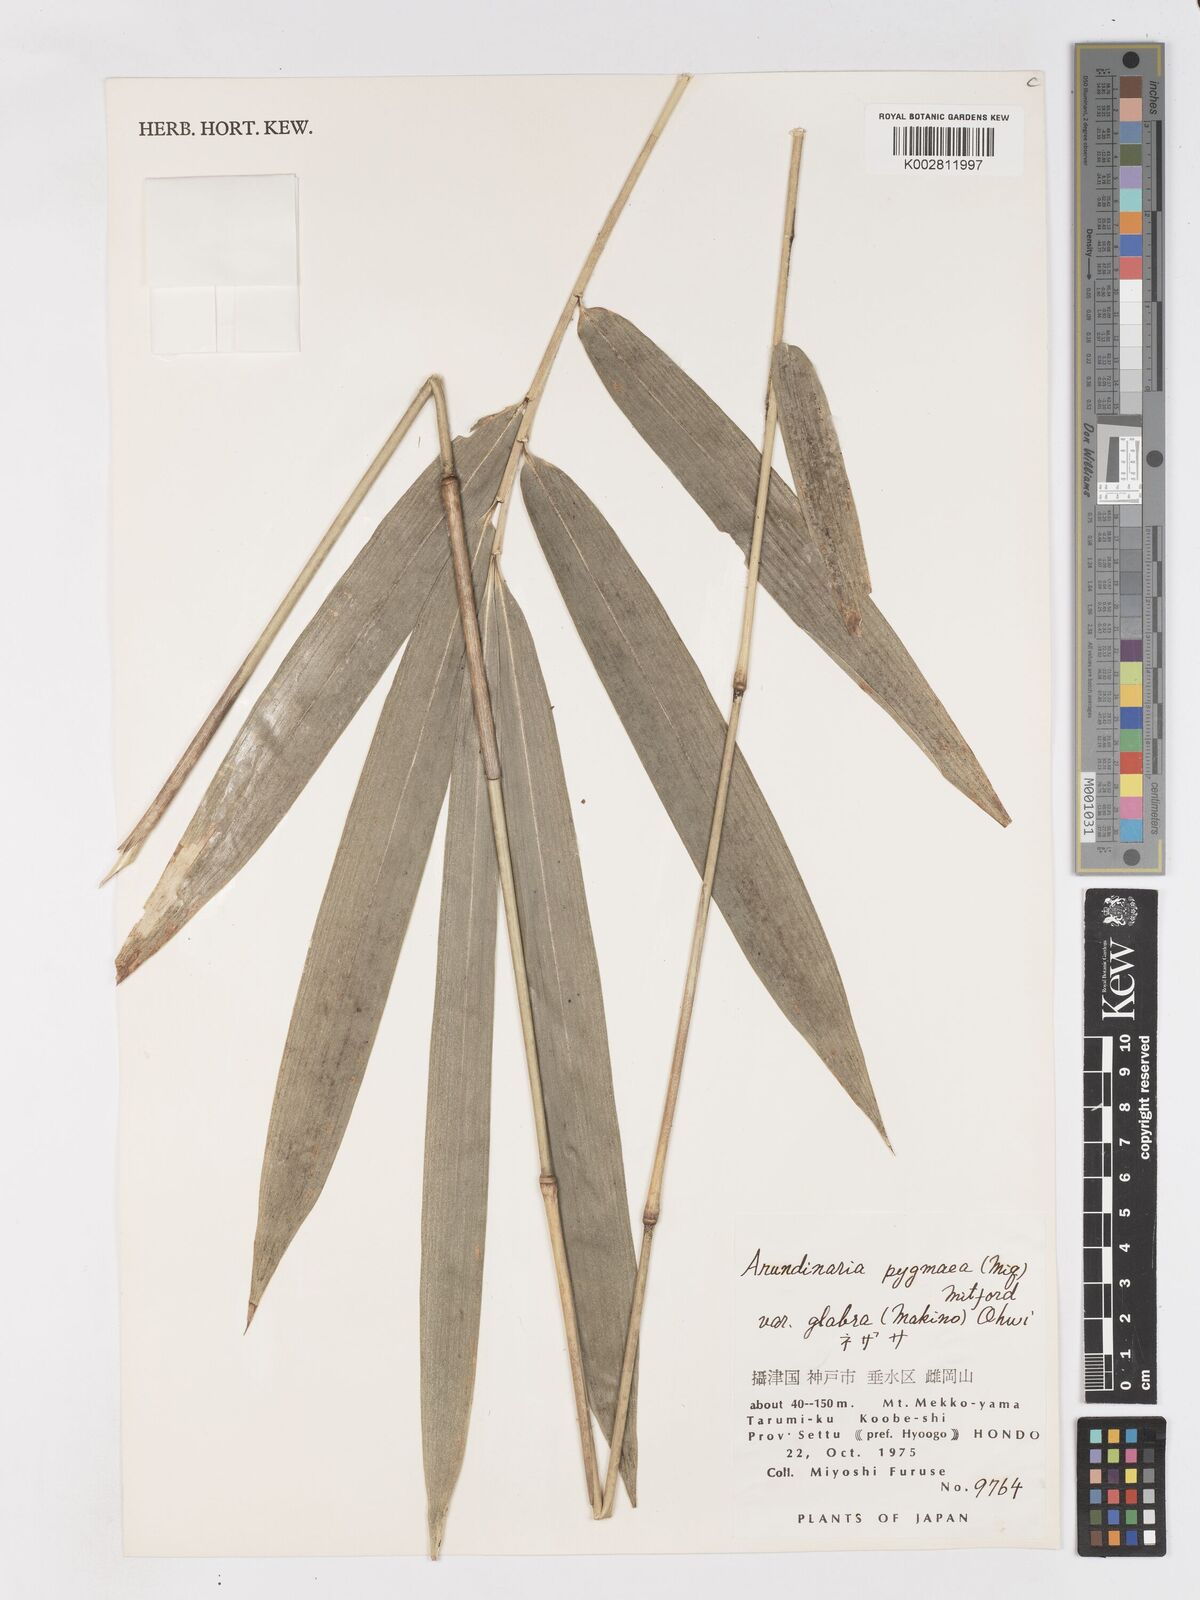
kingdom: Plantae
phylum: Tracheophyta
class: Liliopsida
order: Poales
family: Poaceae
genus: Pleioblastus
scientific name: Pleioblastus variegatus
